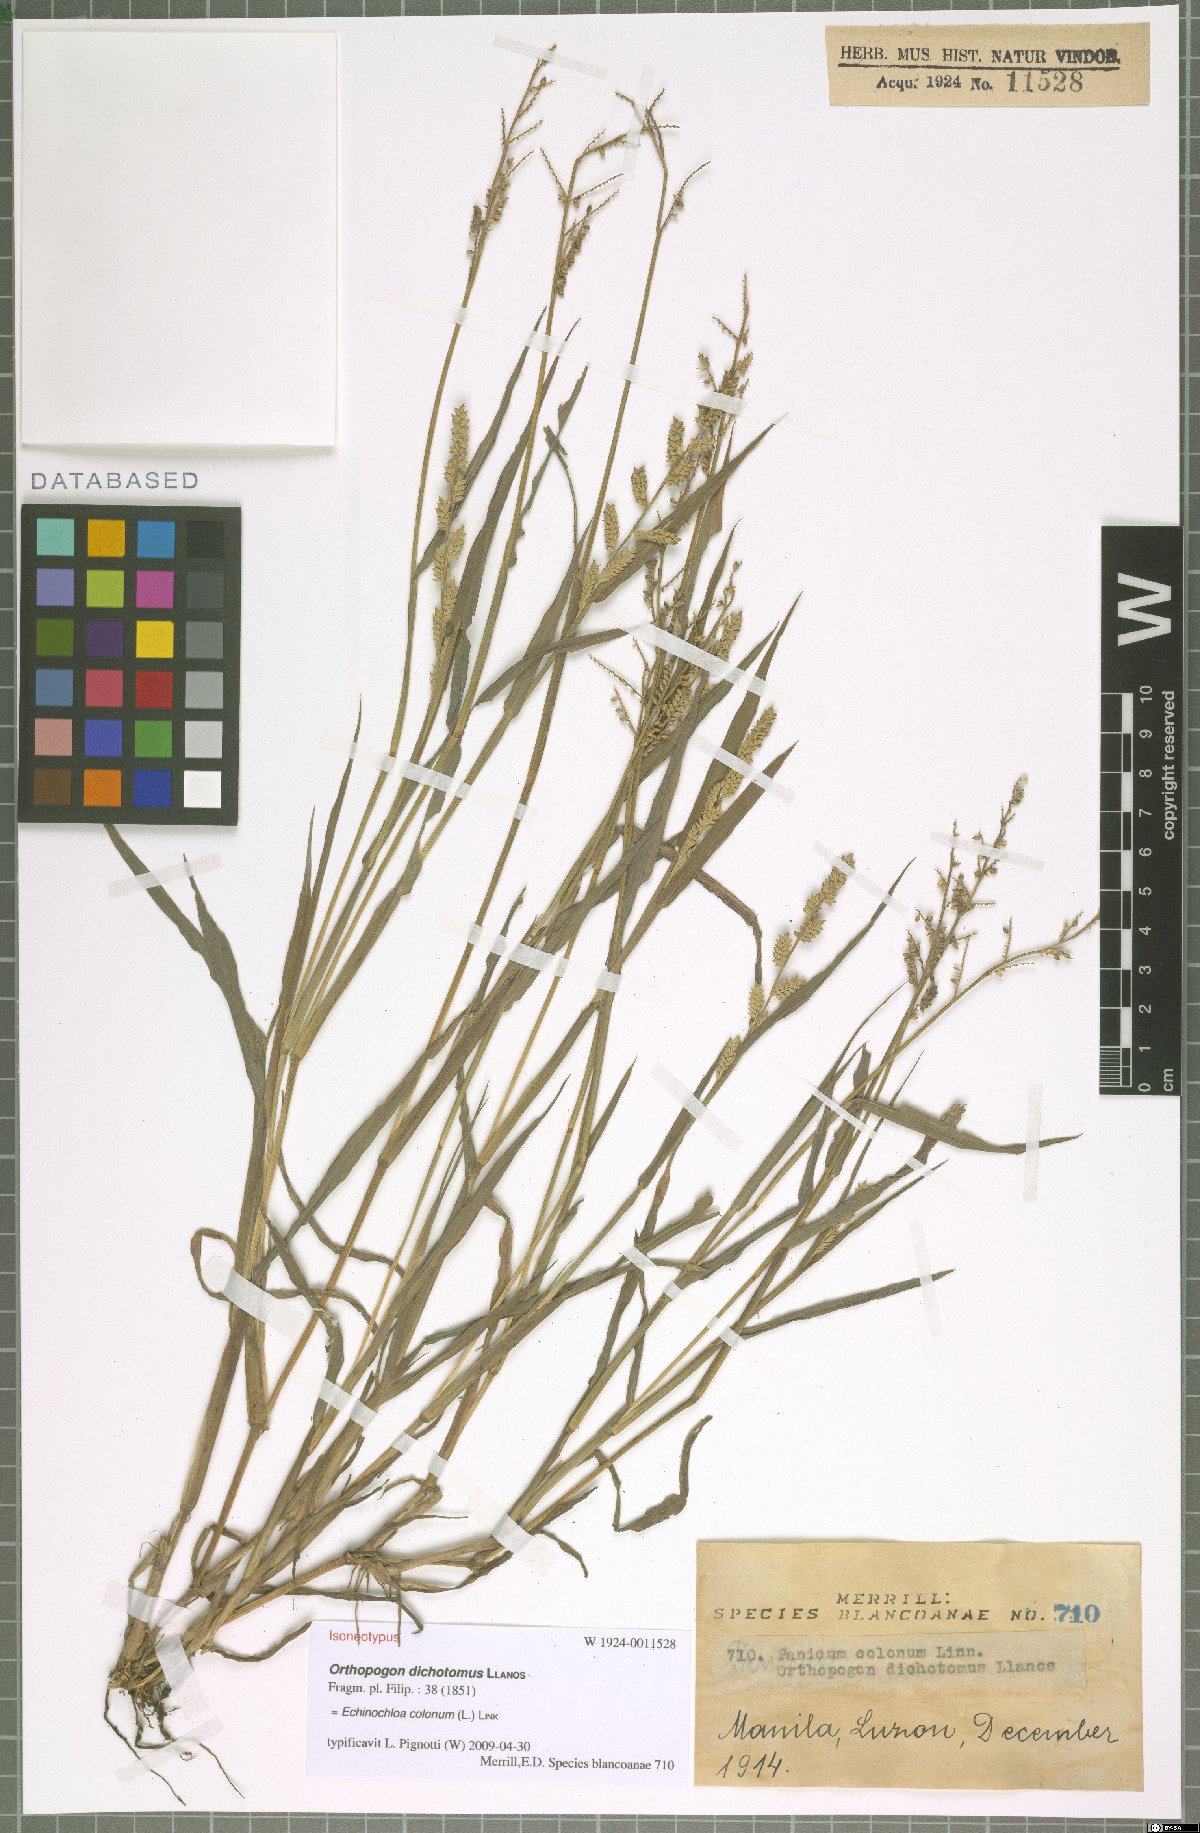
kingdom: Plantae
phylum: Tracheophyta
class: Liliopsida
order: Poales
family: Poaceae
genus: Echinochloa
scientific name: Echinochloa colonum
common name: Jungle rice
